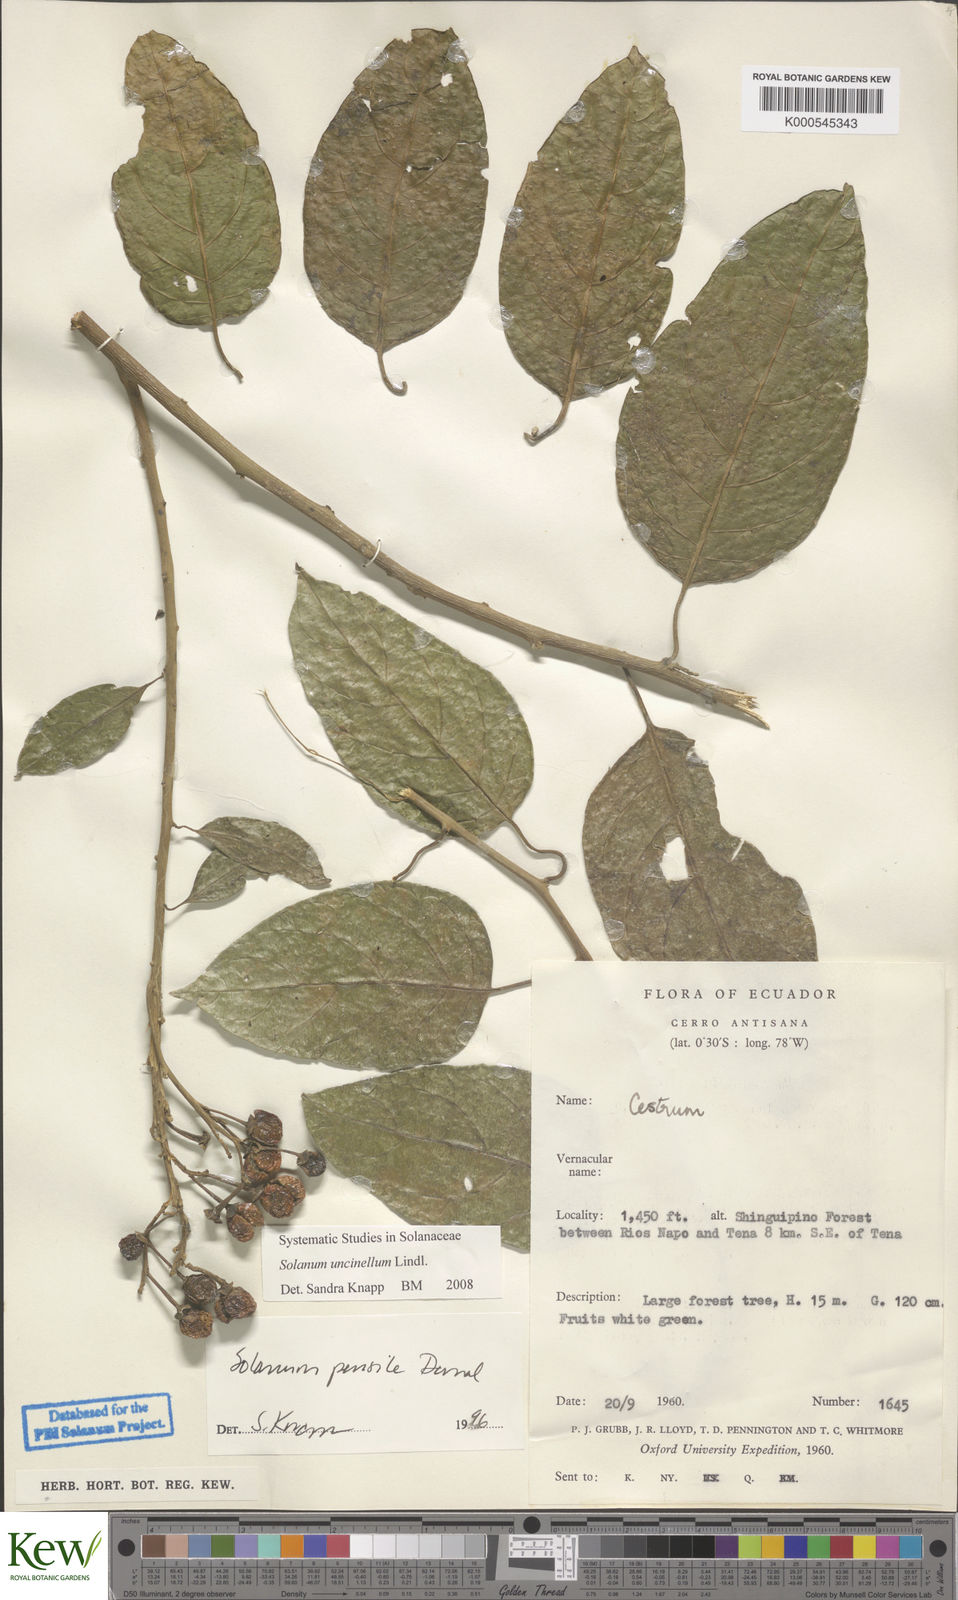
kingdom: Plantae
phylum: Tracheophyta
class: Magnoliopsida
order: Solanales
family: Solanaceae
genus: Solanum
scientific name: Solanum uncinellum
